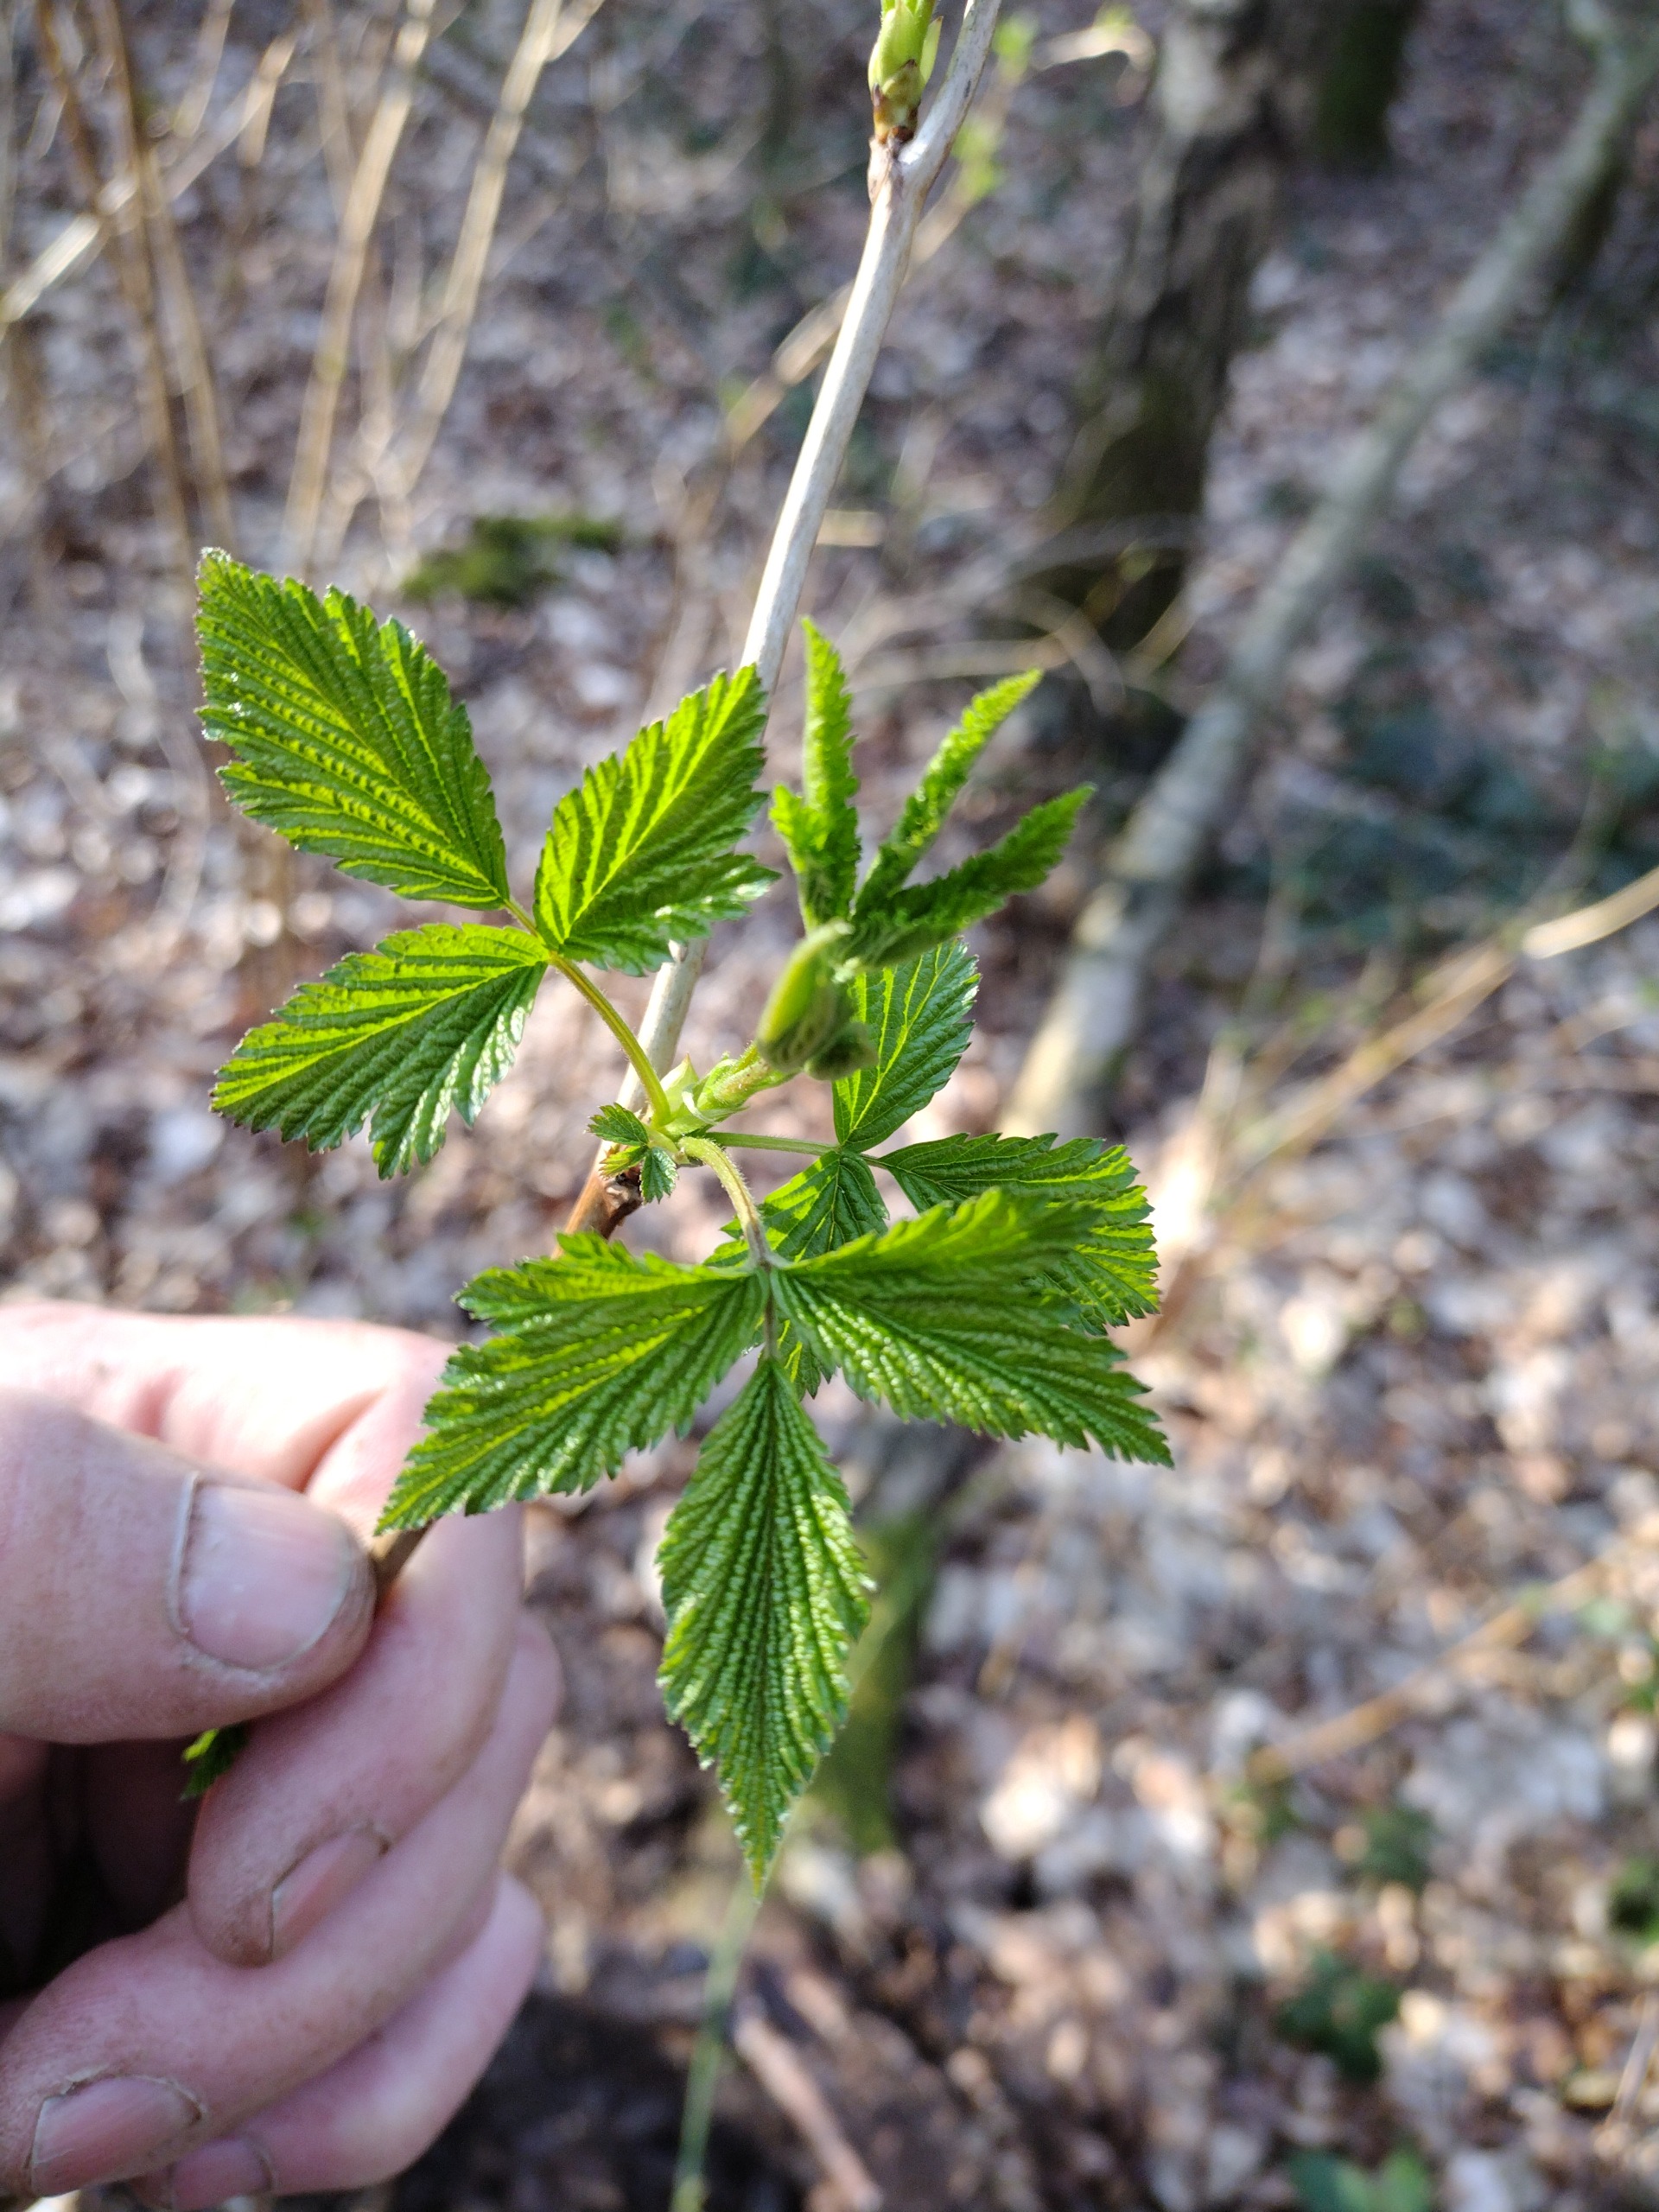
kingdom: Plantae
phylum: Tracheophyta
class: Magnoliopsida
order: Rosales
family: Rosaceae
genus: Rubus
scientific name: Rubus spectabilis
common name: Laksebær
